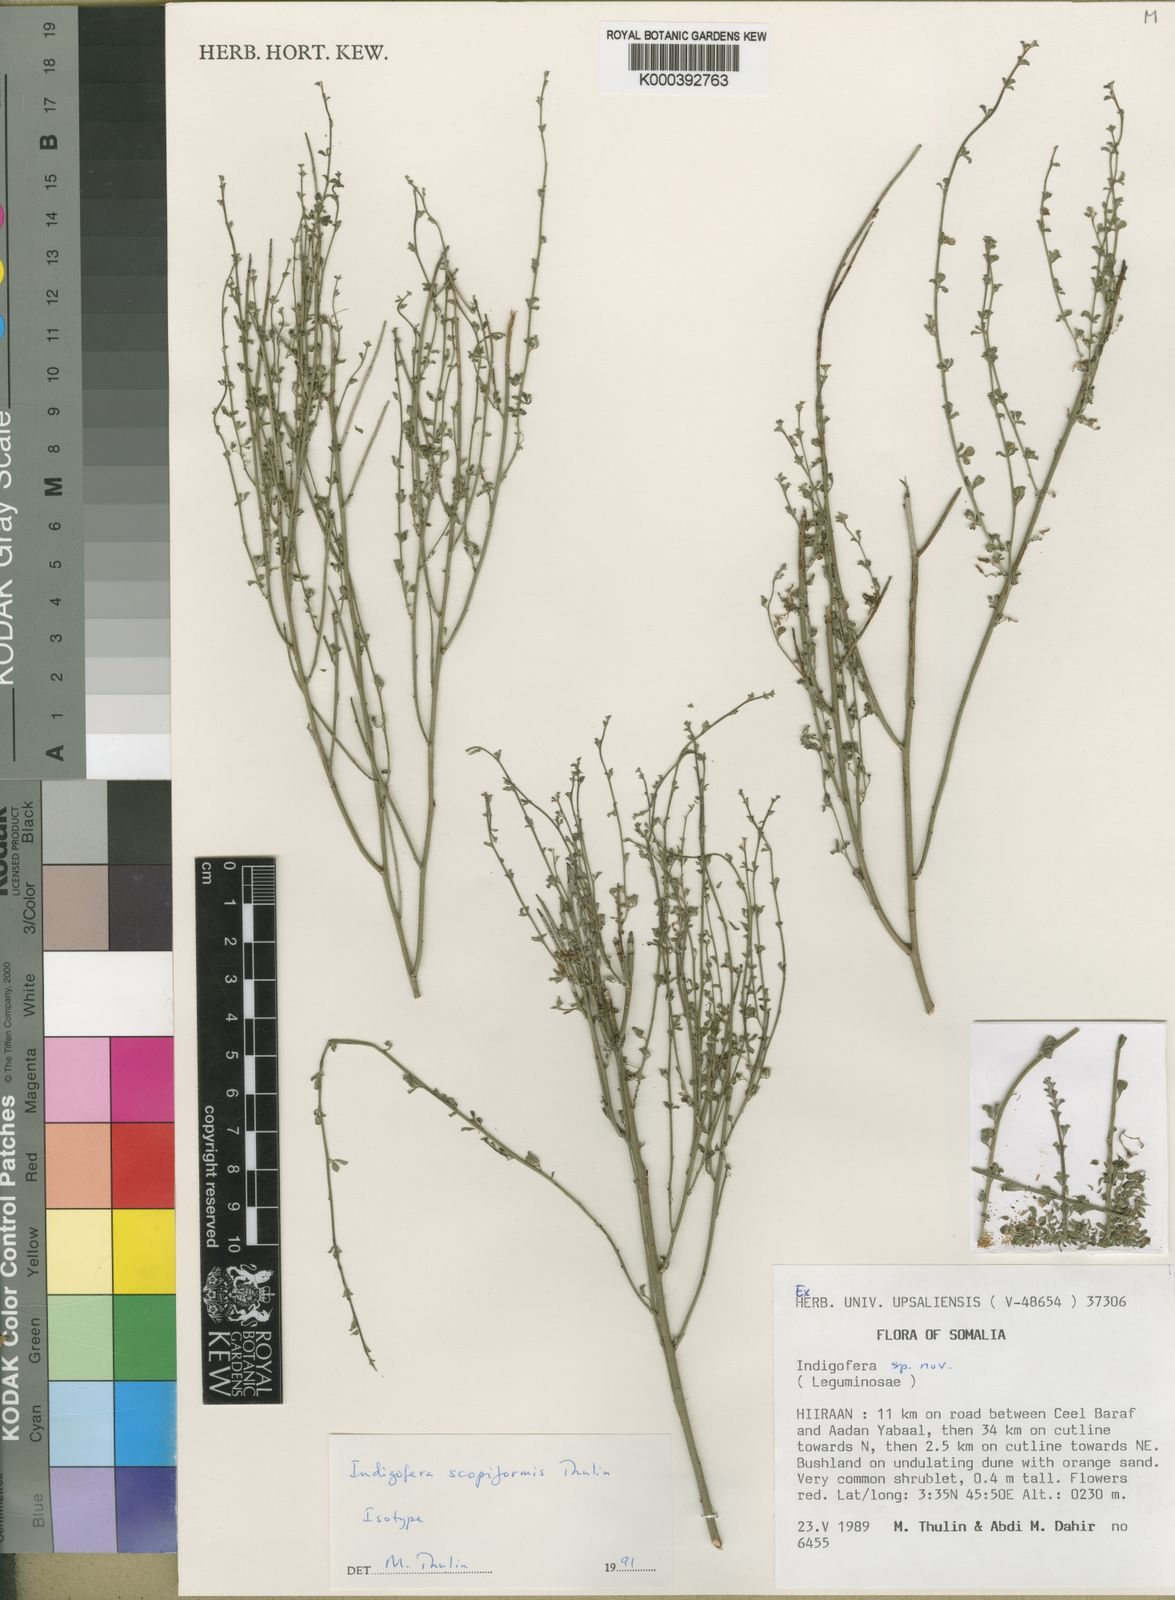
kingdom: Plantae
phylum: Tracheophyta
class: Magnoliopsida
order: Fabales
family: Fabaceae
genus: Indigofera
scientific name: Indigofera scopiformis
